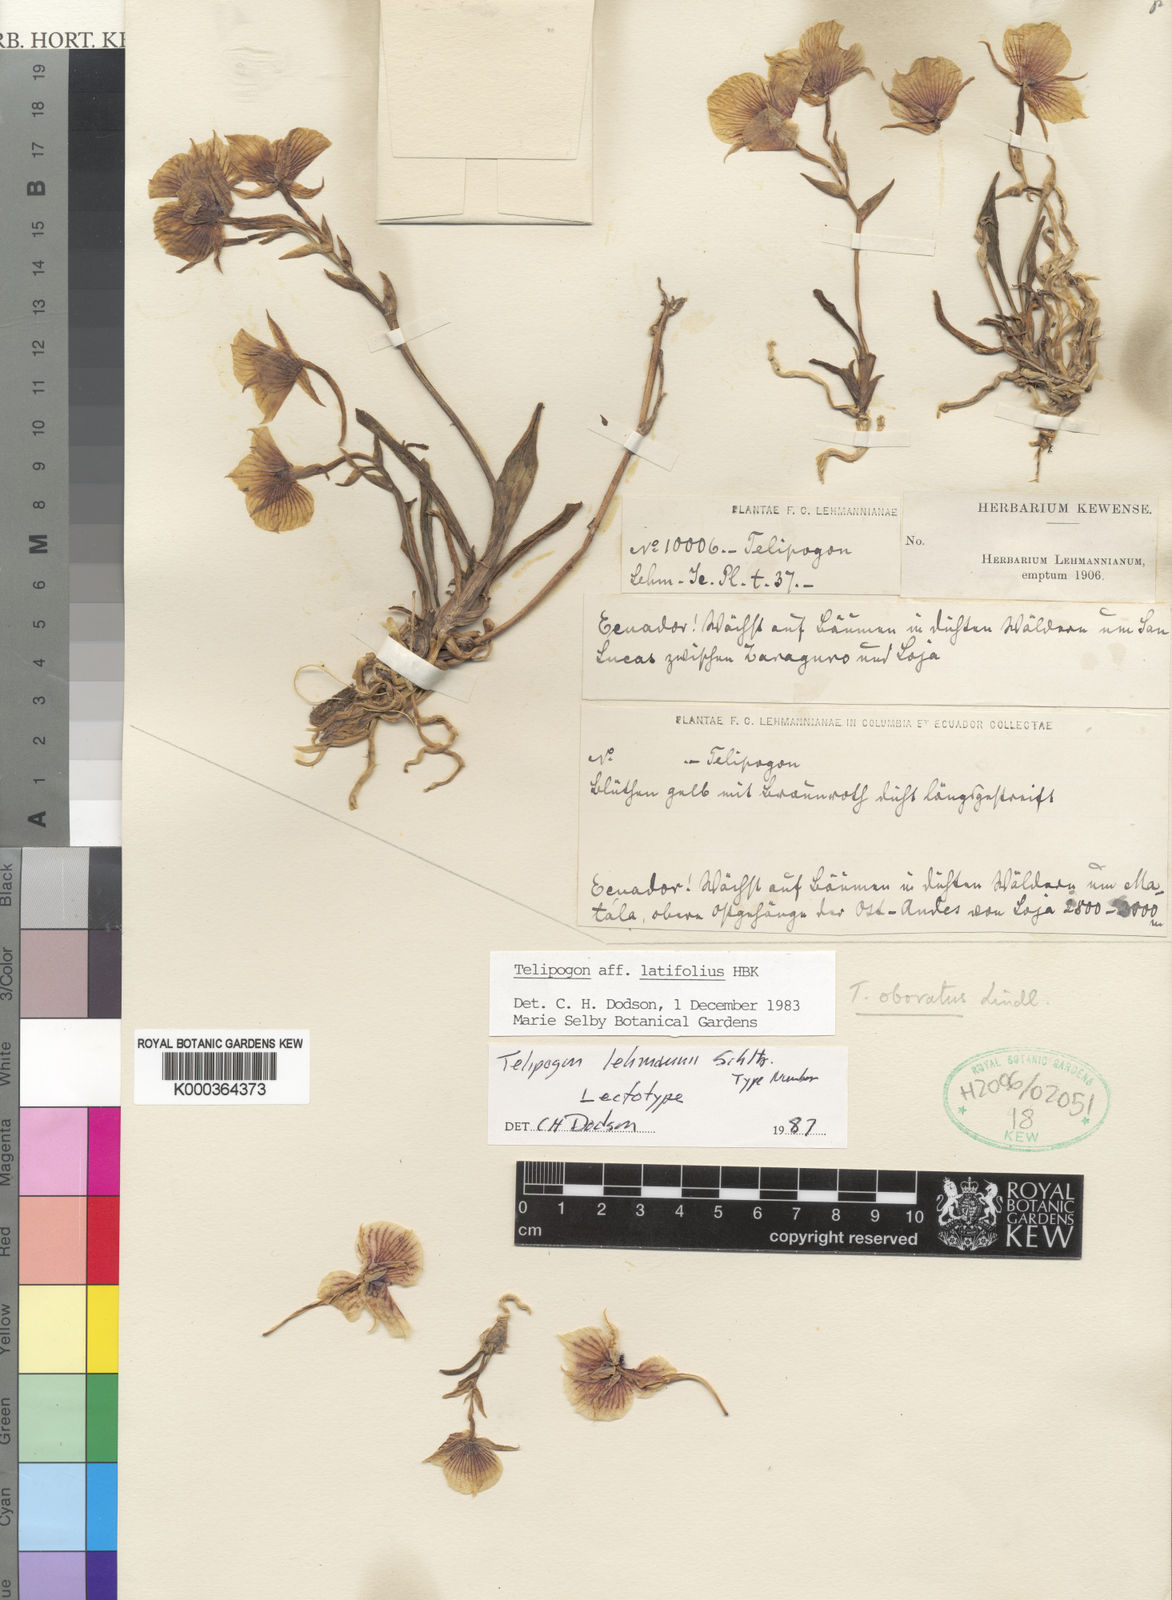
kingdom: Plantae
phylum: Tracheophyta
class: Liliopsida
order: Asparagales
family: Orchidaceae
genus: Telipogon
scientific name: Telipogon
